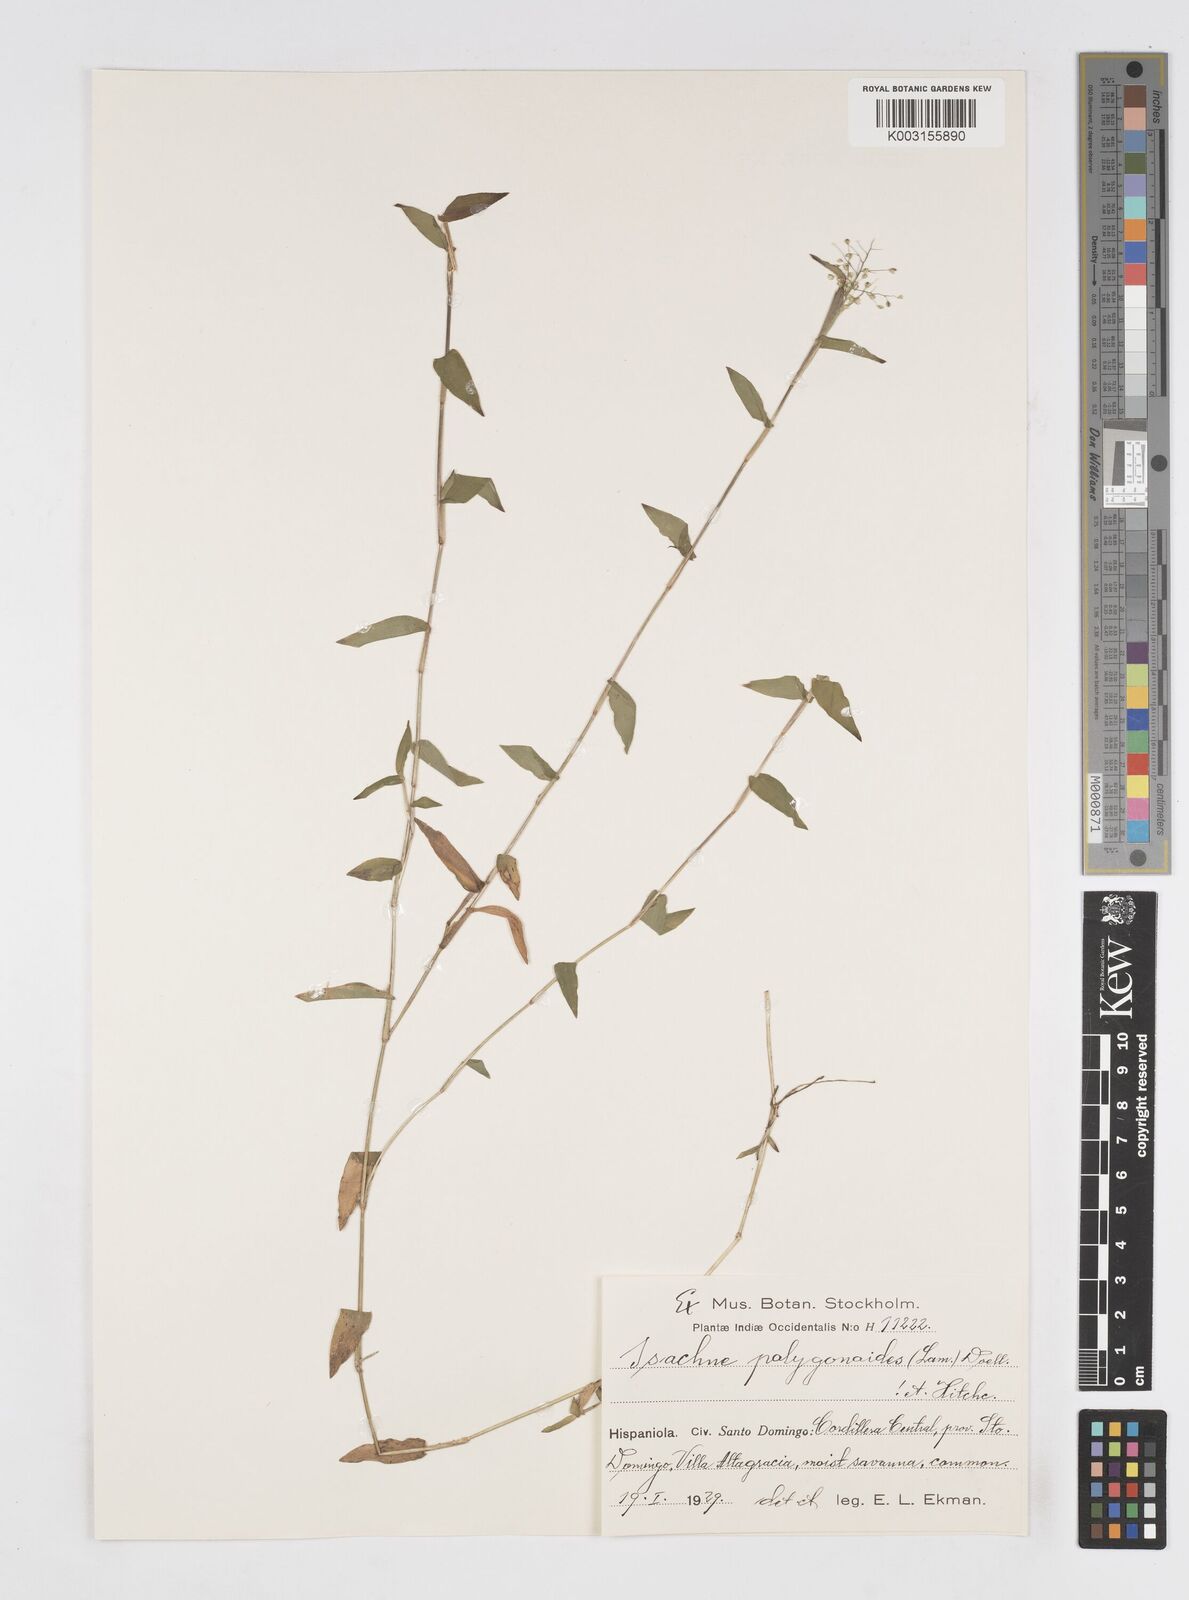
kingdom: Plantae
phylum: Tracheophyta
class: Liliopsida
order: Poales
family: Poaceae
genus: Isachne
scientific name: Isachne polygonoides
